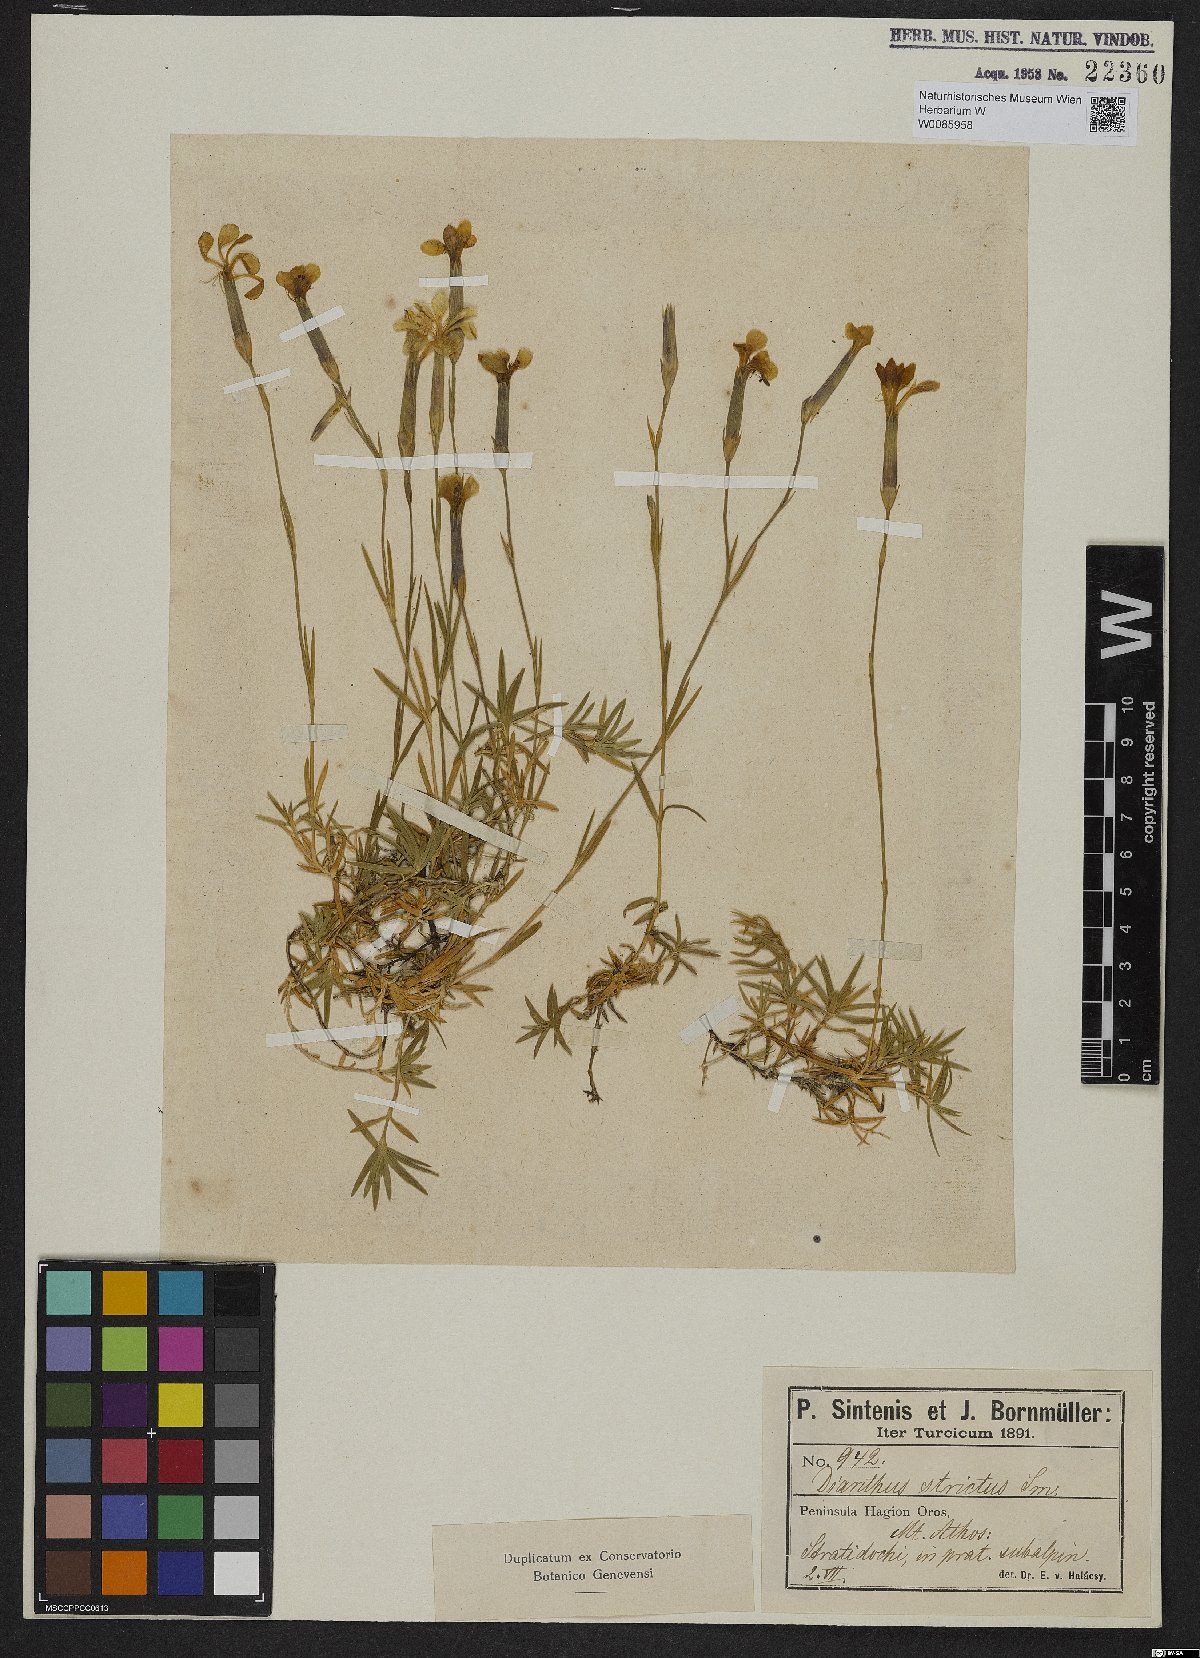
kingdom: Plantae
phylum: Tracheophyta
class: Magnoliopsida
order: Caryophyllales
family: Caryophyllaceae
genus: Dianthus
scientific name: Dianthus petraeus
